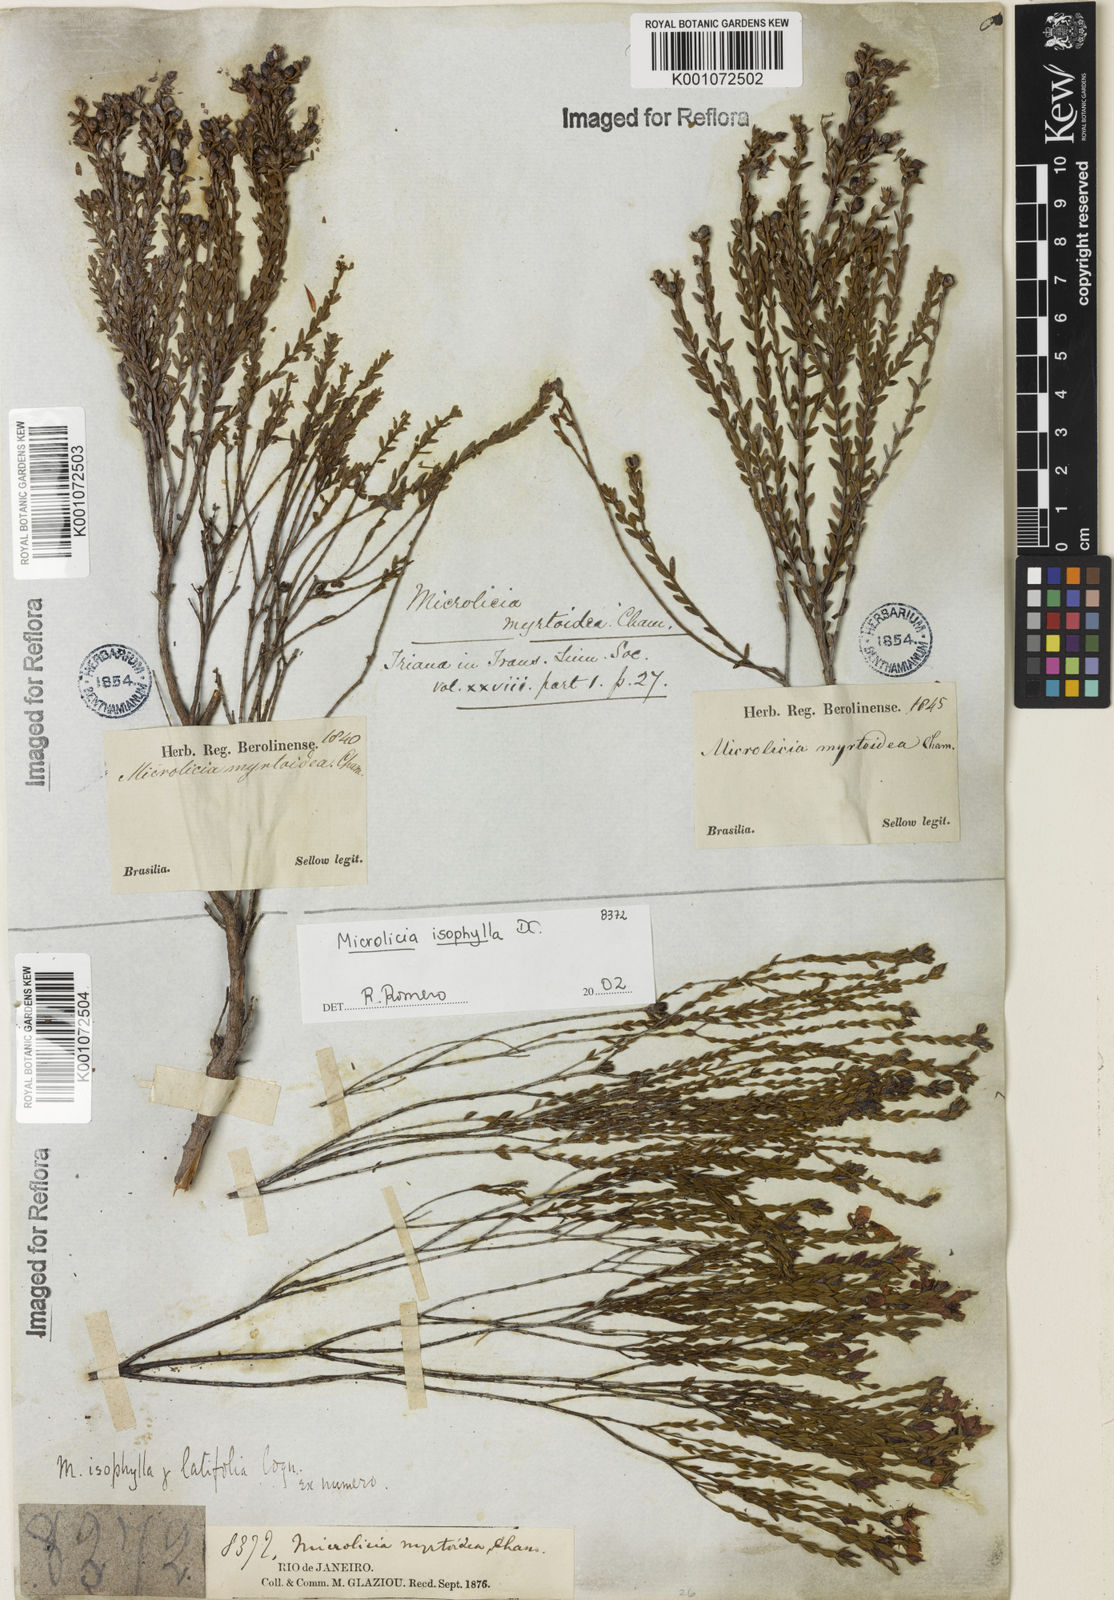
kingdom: Plantae
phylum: Tracheophyta
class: Magnoliopsida
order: Myrtales
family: Melastomataceae
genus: Microlicia
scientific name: Microlicia myrtoidea
